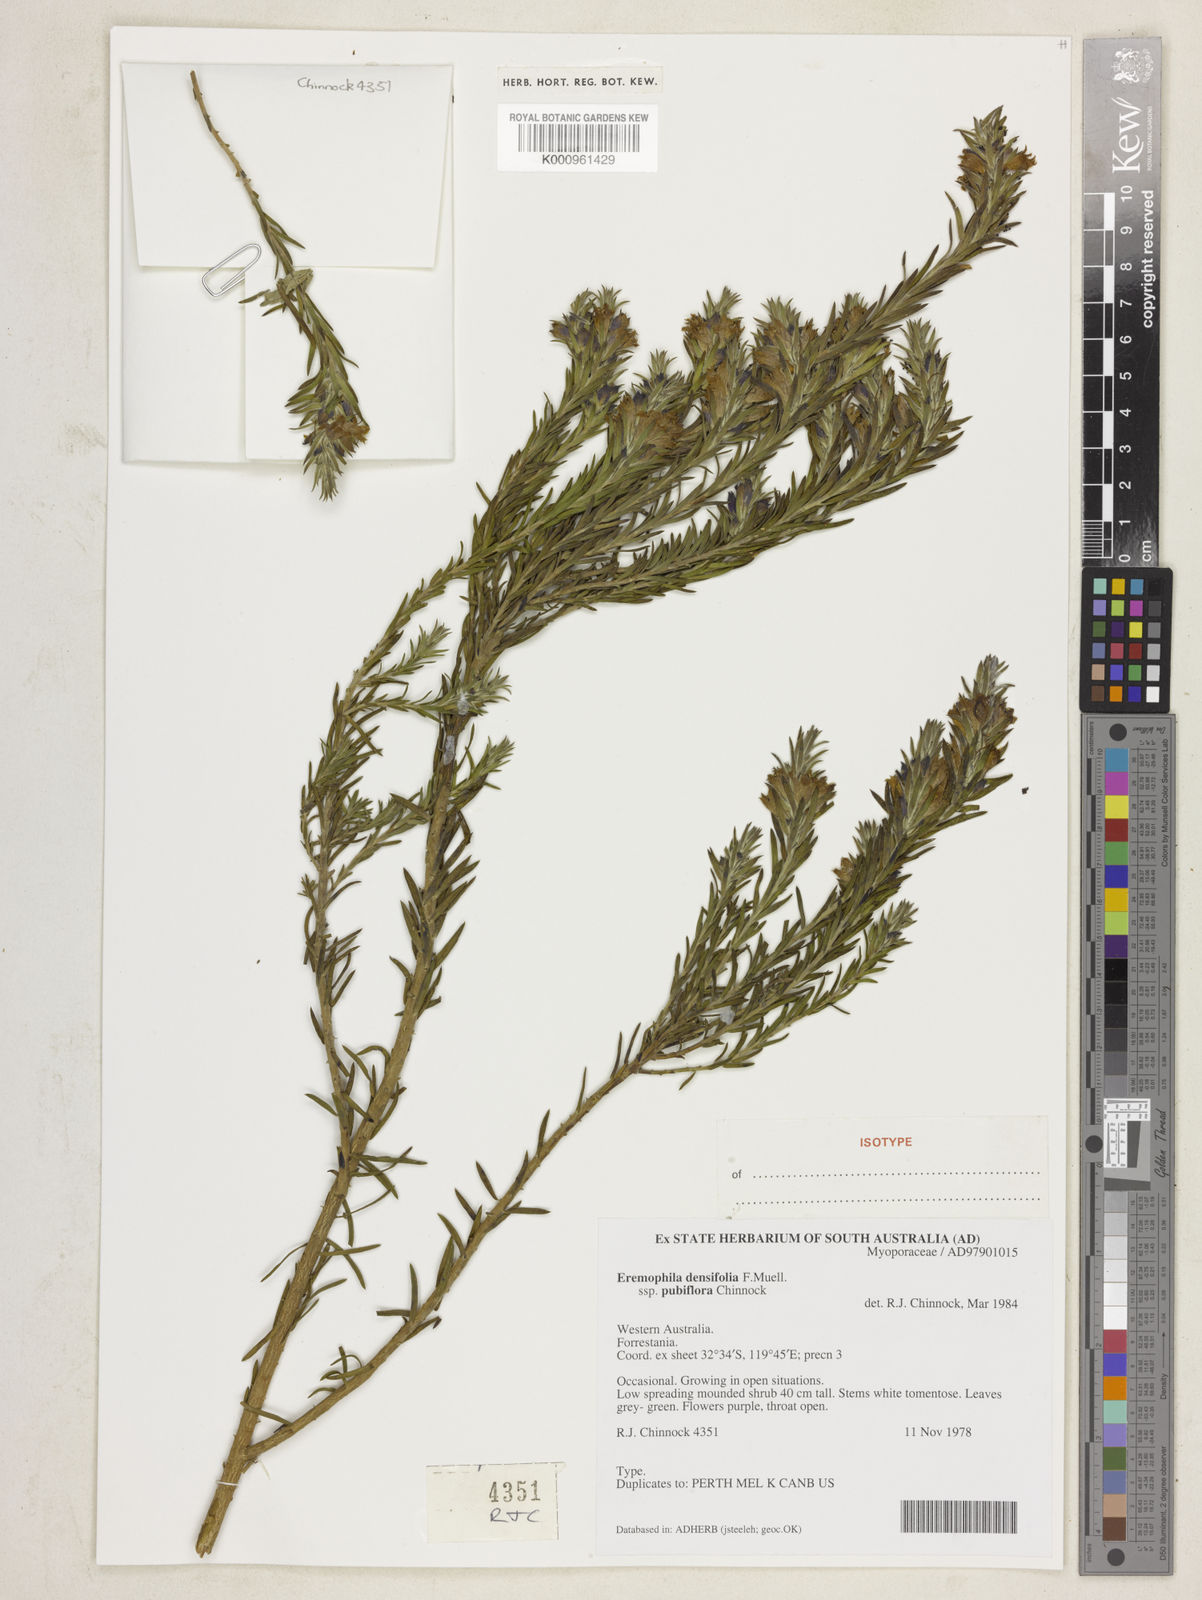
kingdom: Plantae
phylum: Tracheophyta
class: Magnoliopsida
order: Lamiales
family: Scrophulariaceae
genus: Eremophila
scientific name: Eremophila densifolia
